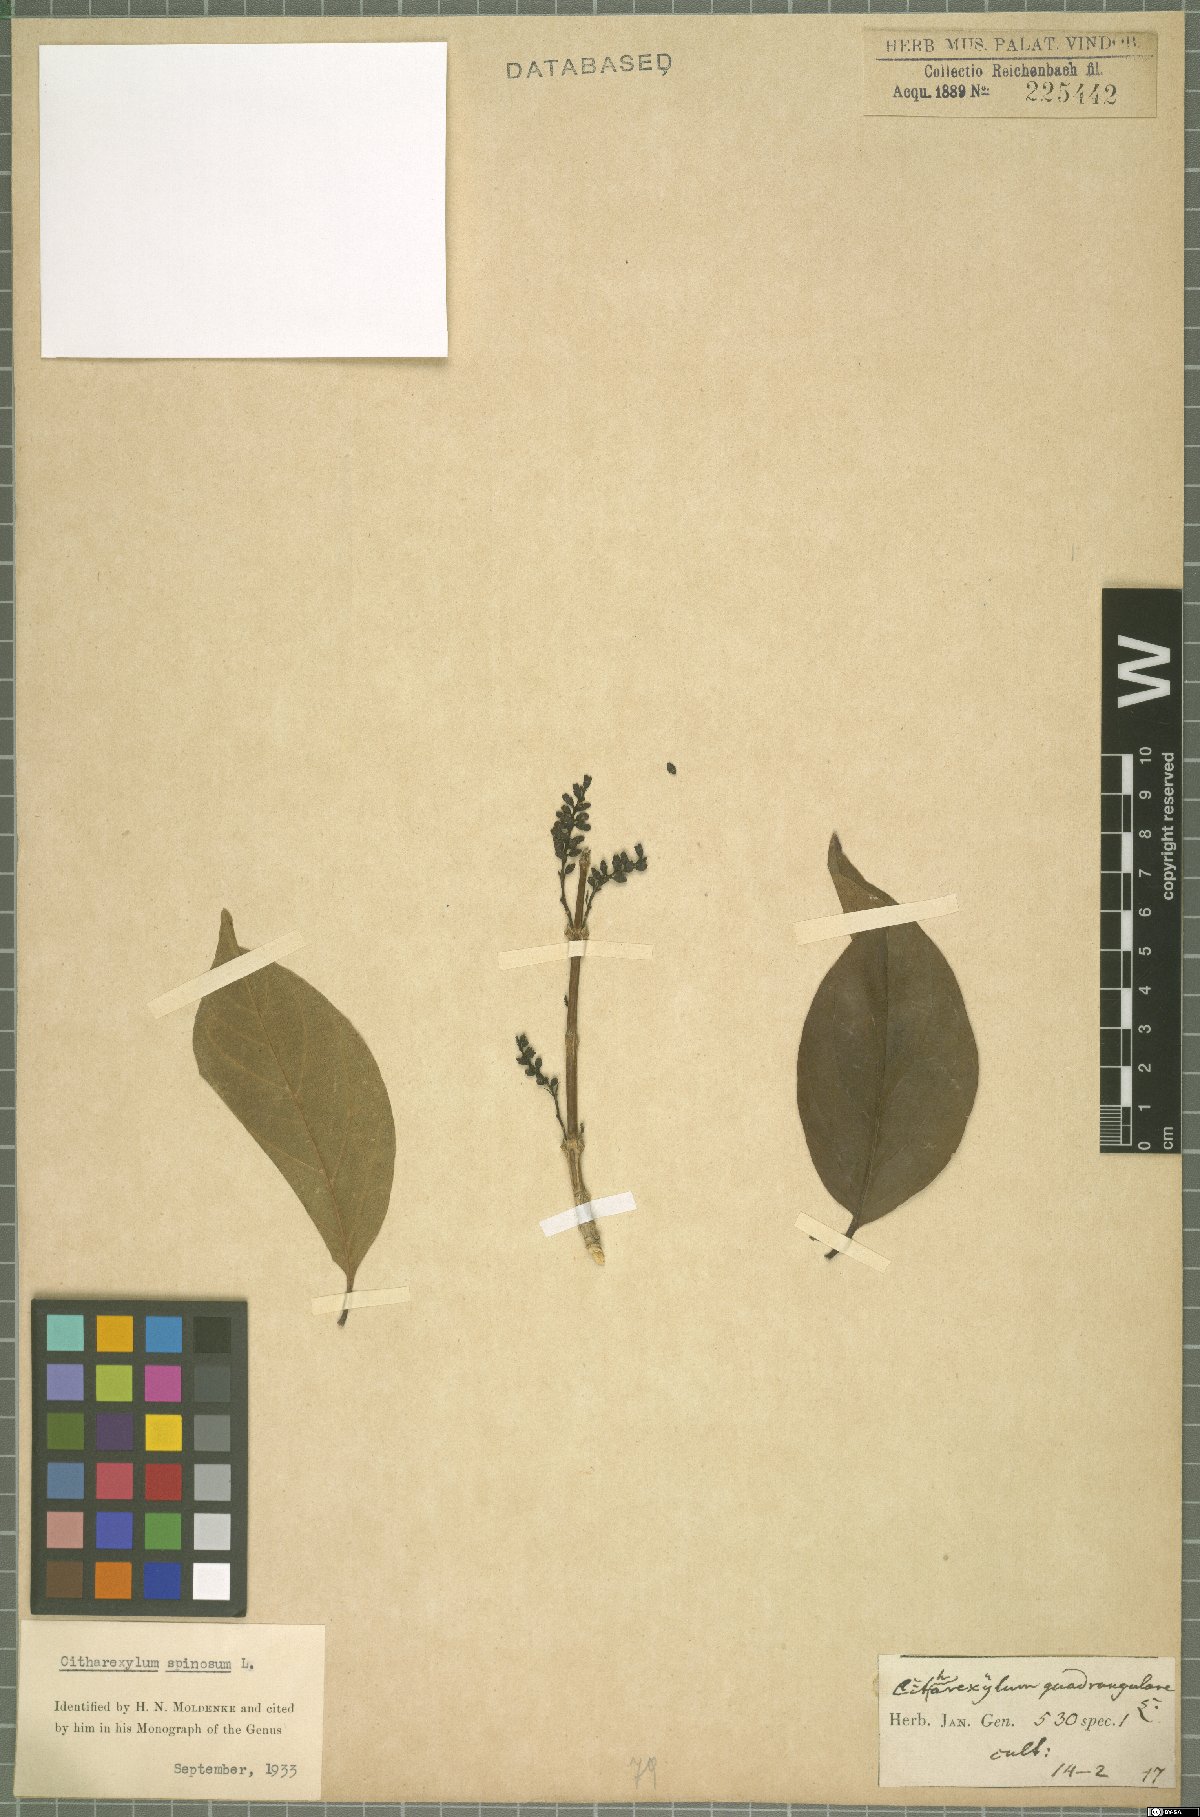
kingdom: Plantae
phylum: Tracheophyta
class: Magnoliopsida
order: Lamiales
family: Verbenaceae
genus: Citharexylum
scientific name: Citharexylum spinosum
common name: Fiddlewood
